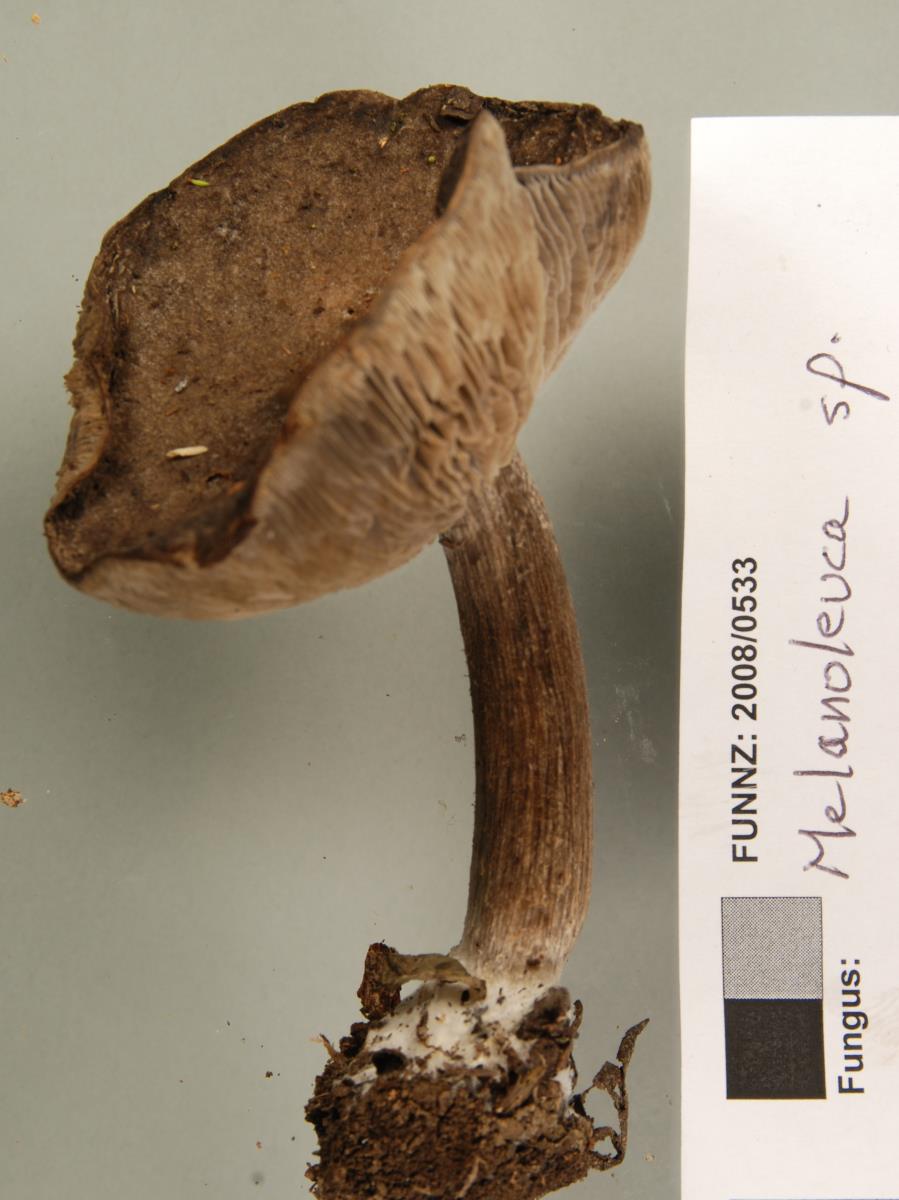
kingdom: Fungi
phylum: Basidiomycota
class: Agaricomycetes
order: Agaricales
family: Tricholomataceae
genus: Melanoleuca
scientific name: Melanoleuca
